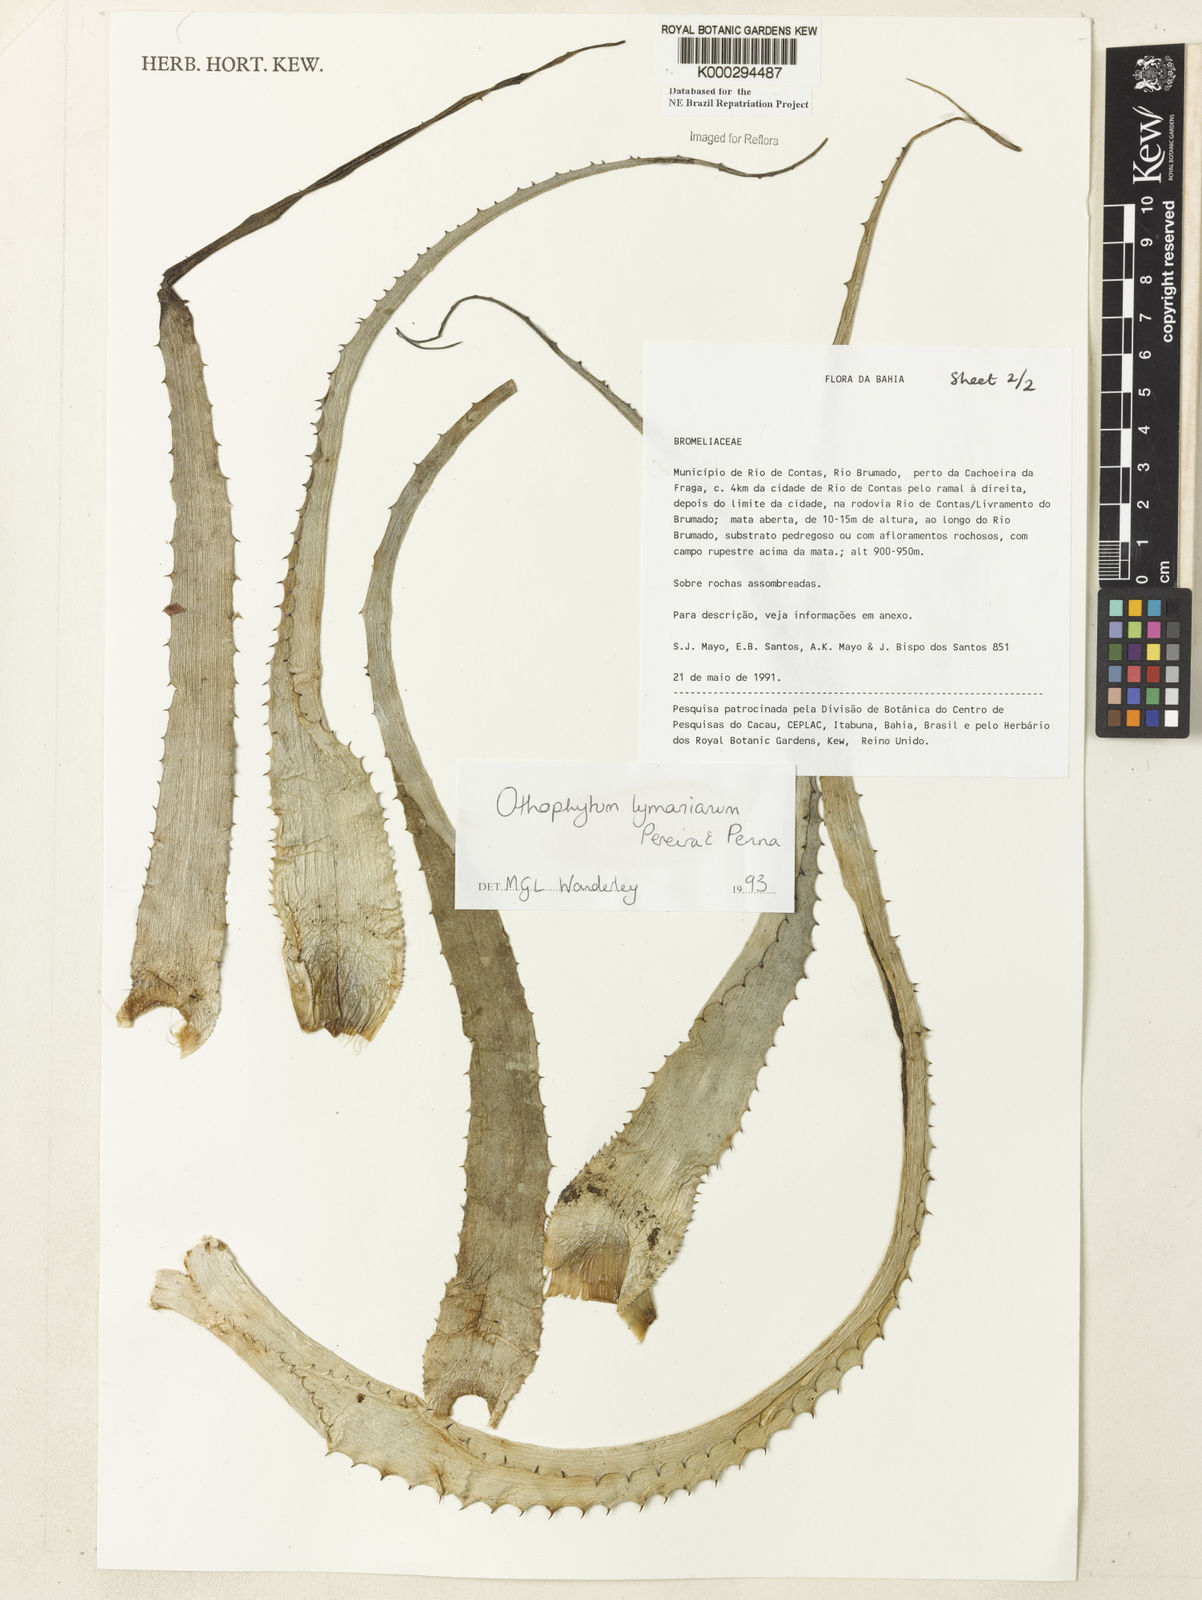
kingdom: Plantae
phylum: Tracheophyta
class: Liliopsida
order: Poales
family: Bromeliaceae
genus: Orthophytum
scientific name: Orthophytum lymanianum
